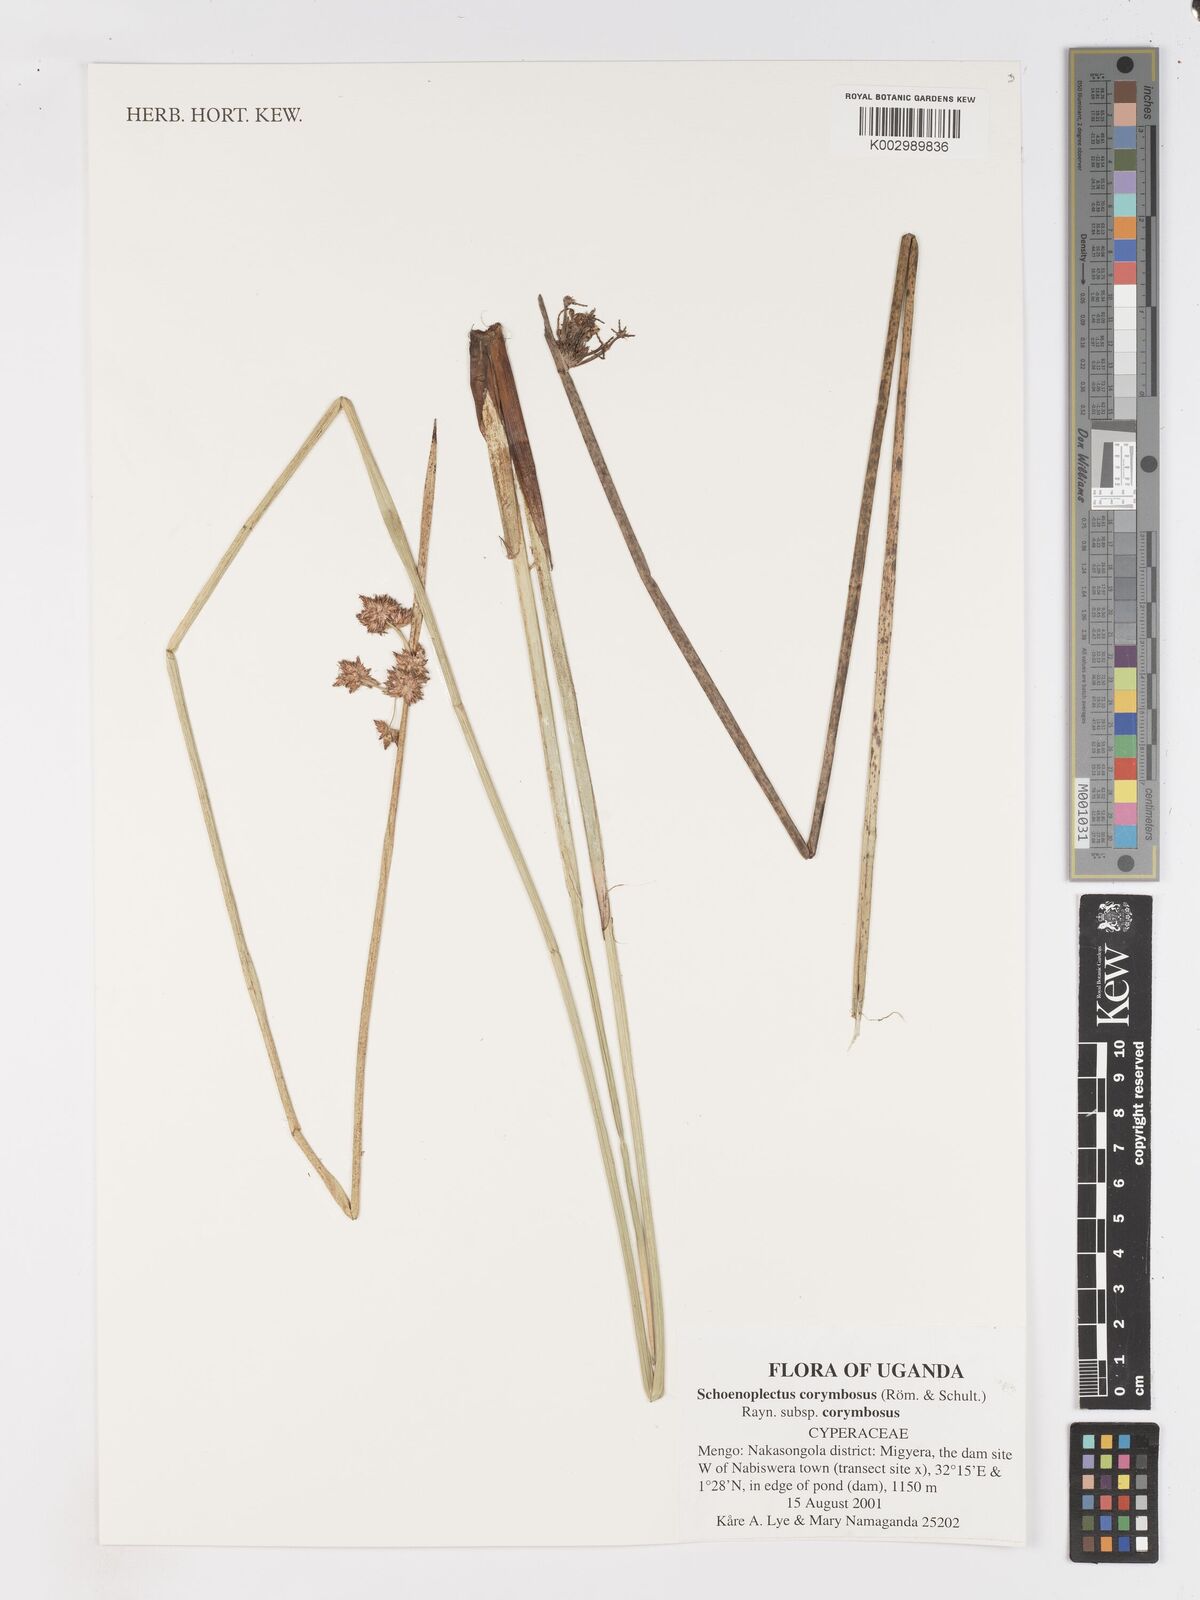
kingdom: Plantae
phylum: Tracheophyta
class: Liliopsida
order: Poales
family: Cyperaceae
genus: Schoenoplectiella
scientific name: Schoenoplectiella corymbosa
